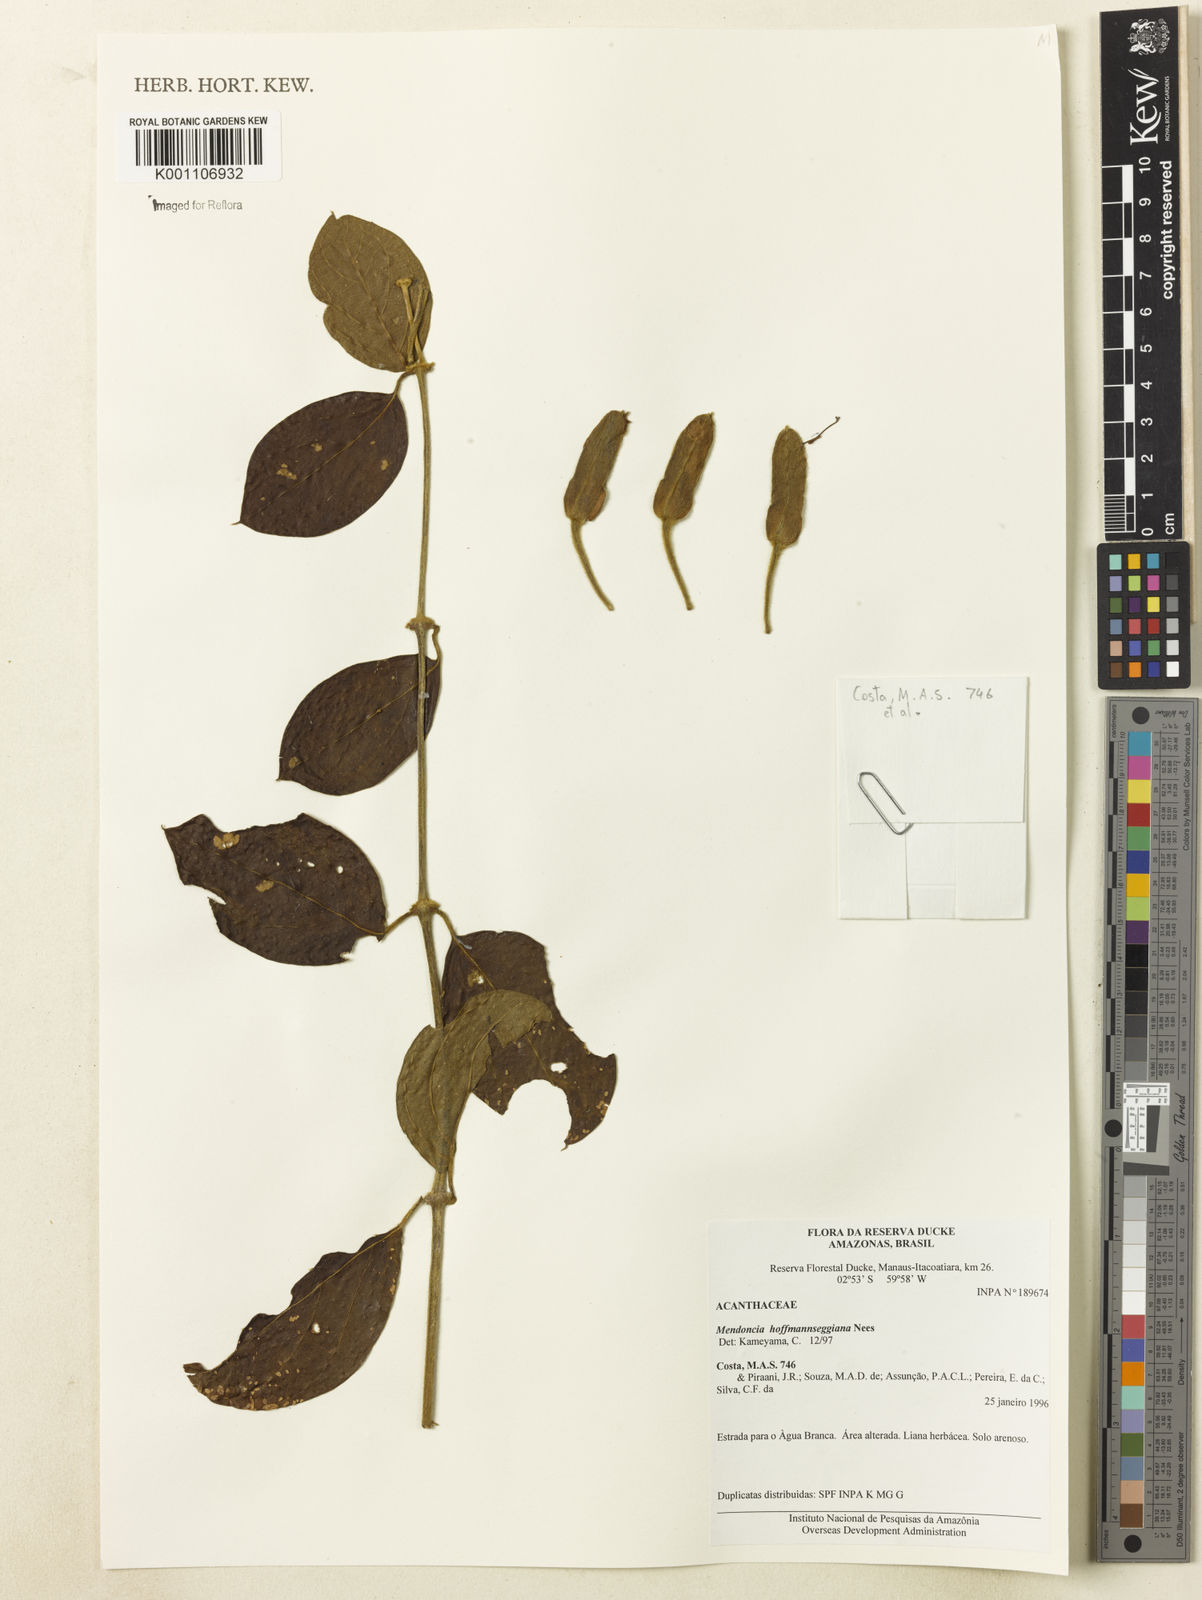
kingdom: Plantae
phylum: Tracheophyta
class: Magnoliopsida
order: Lamiales
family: Acanthaceae
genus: Mendoncia
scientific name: Mendoncia hoffmannseggiana
